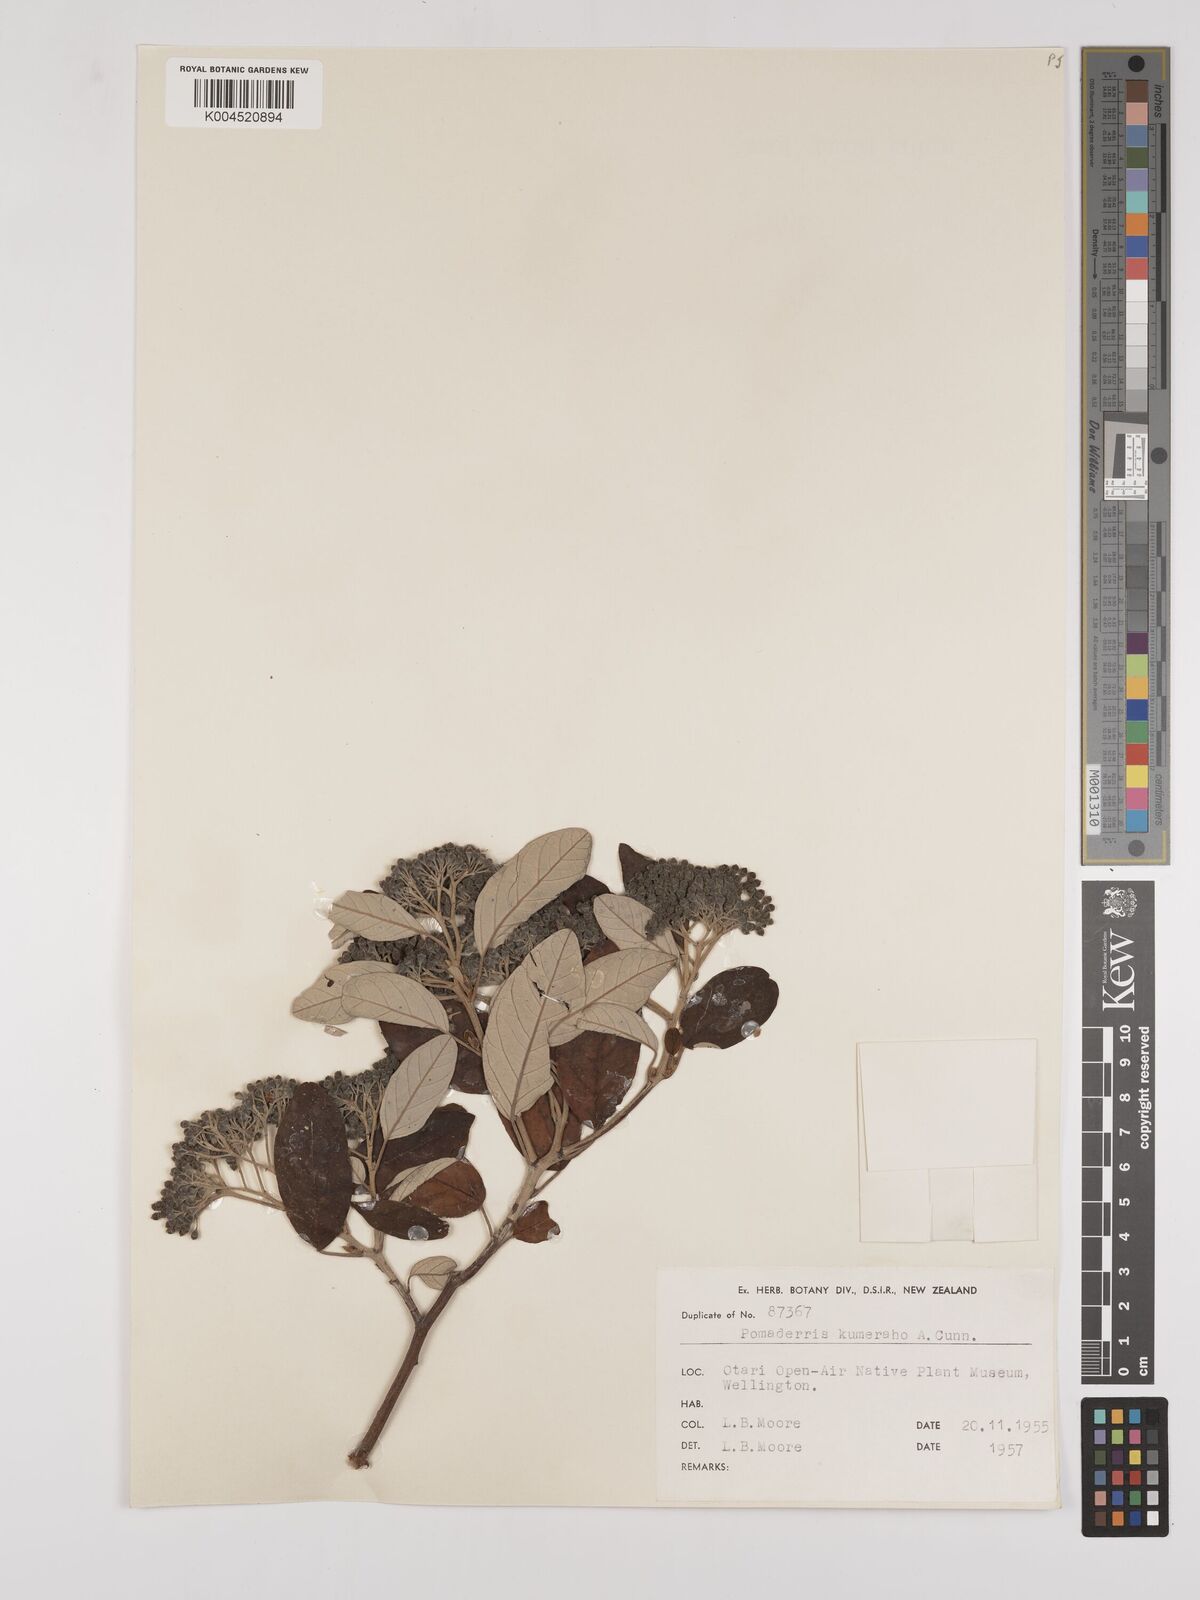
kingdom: Plantae
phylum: Tracheophyta
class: Magnoliopsida
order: Rosales
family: Rhamnaceae
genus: Pomaderris
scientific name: Pomaderris kumeraho
